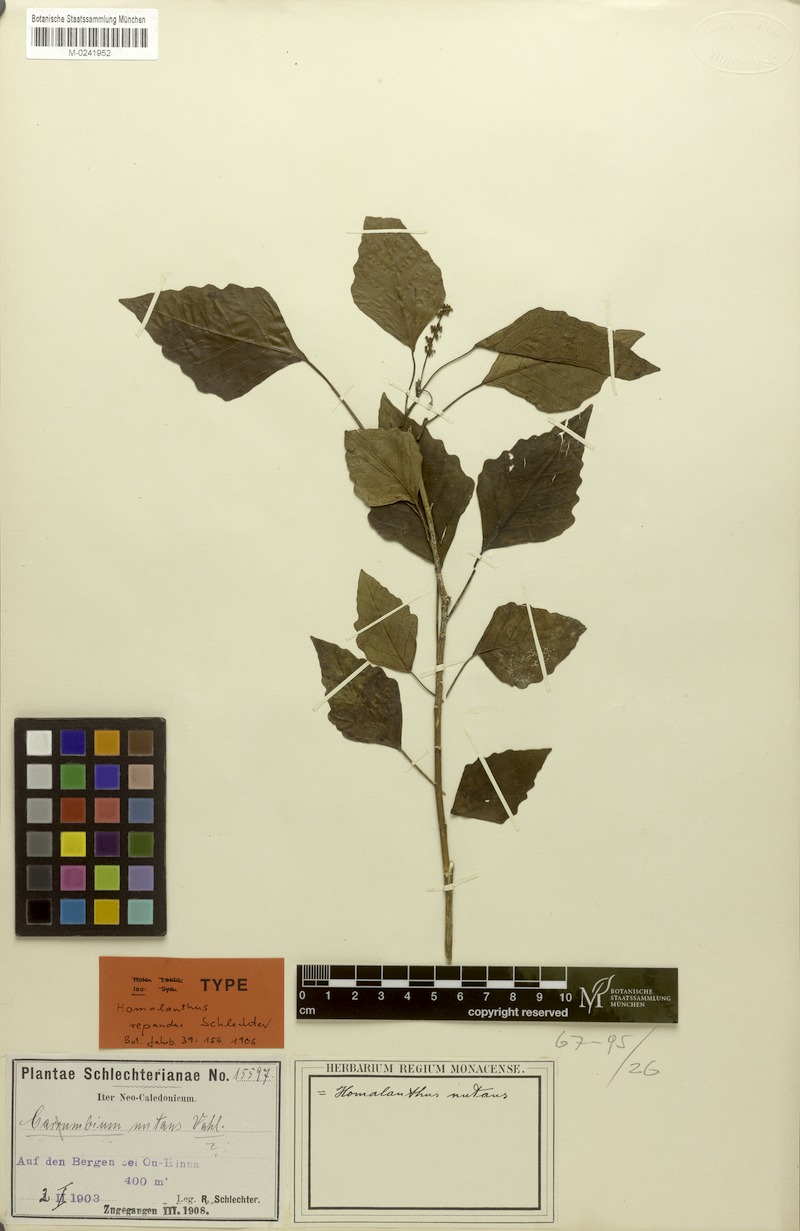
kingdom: Plantae
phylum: Tracheophyta
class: Magnoliopsida
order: Malpighiales
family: Euphorbiaceae
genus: Homalanthus
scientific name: Homalanthus repandus
